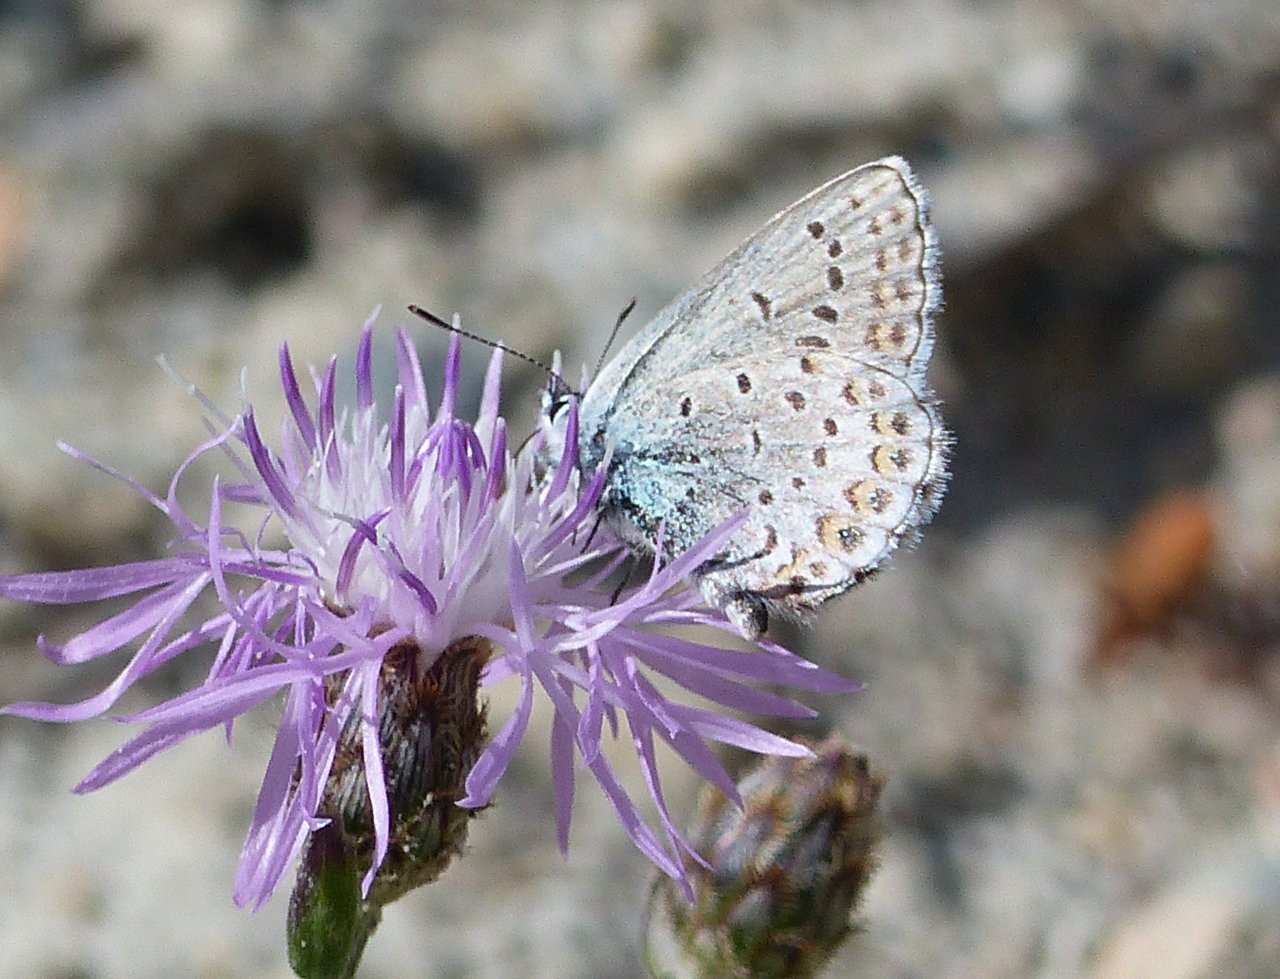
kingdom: Animalia
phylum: Arthropoda
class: Insecta
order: Lepidoptera
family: Lycaenidae
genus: Lycaeides
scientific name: Lycaeides idas
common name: Northern Blue
